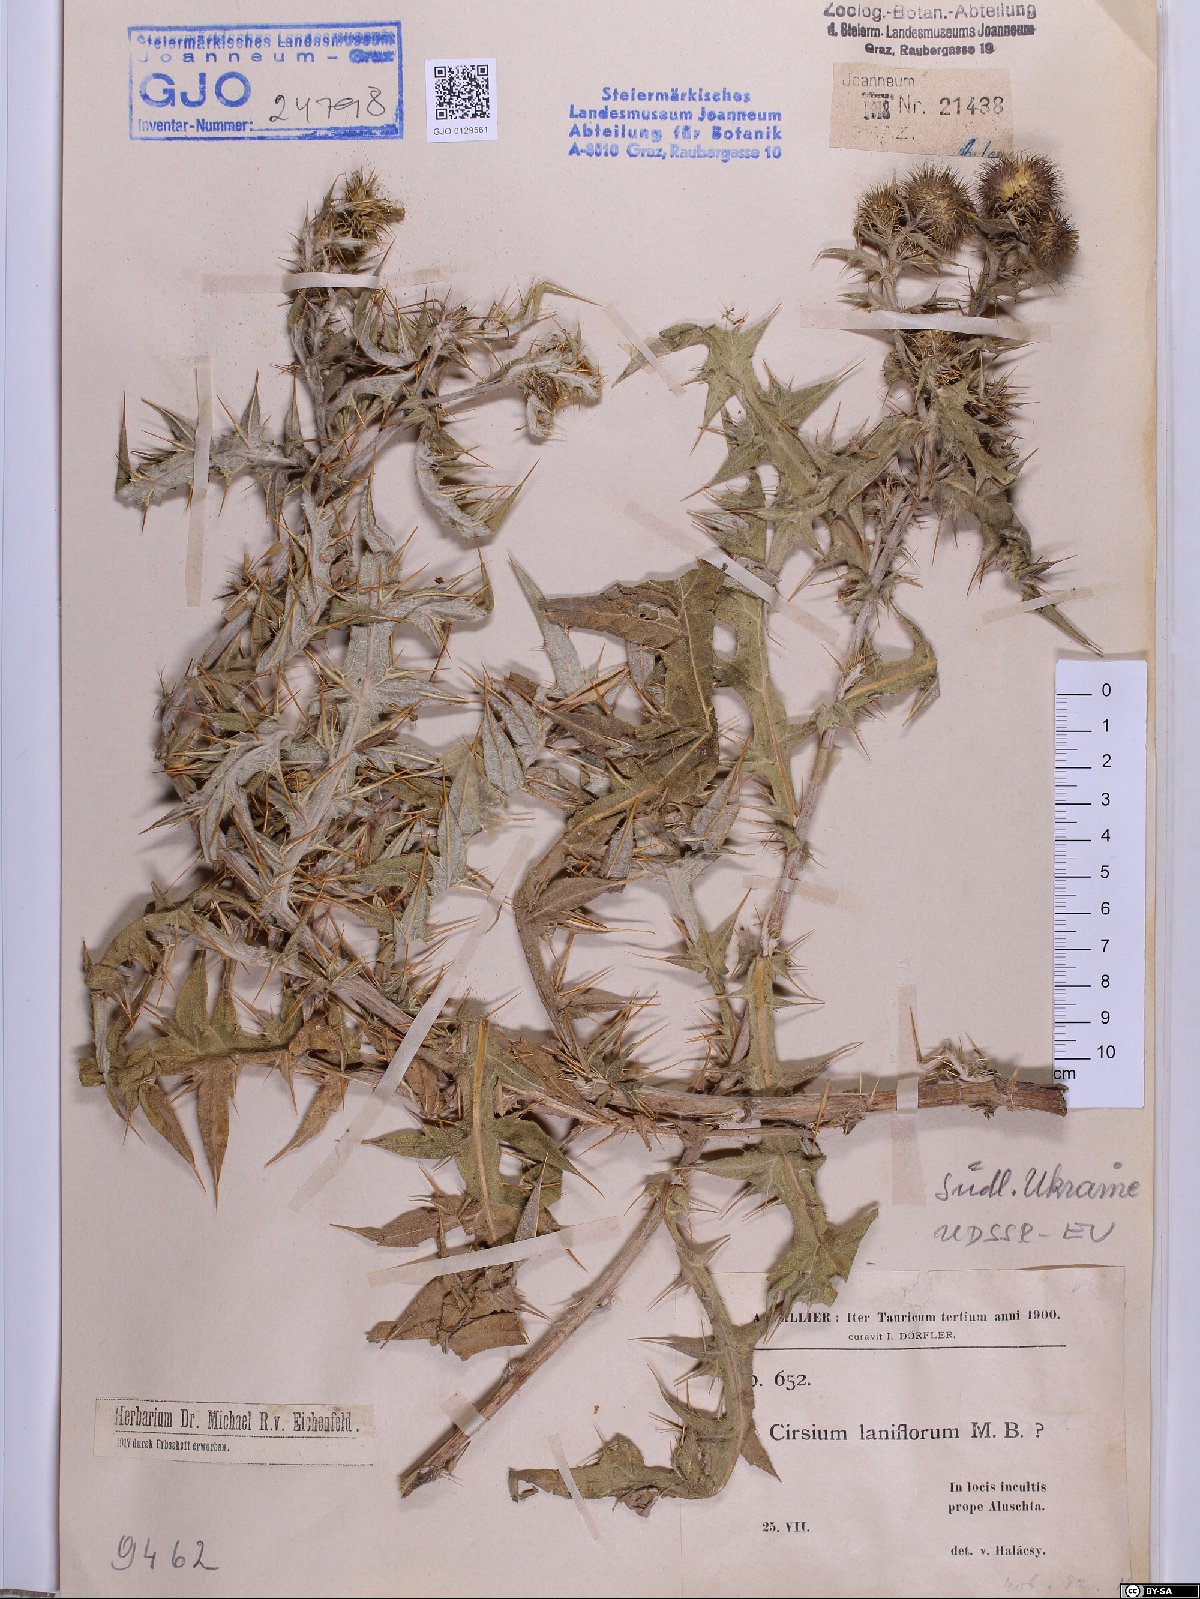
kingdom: Plantae
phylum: Tracheophyta
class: Magnoliopsida
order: Asterales
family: Asteraceae
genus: Lophiolepis
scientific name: Lophiolepis laniflora
